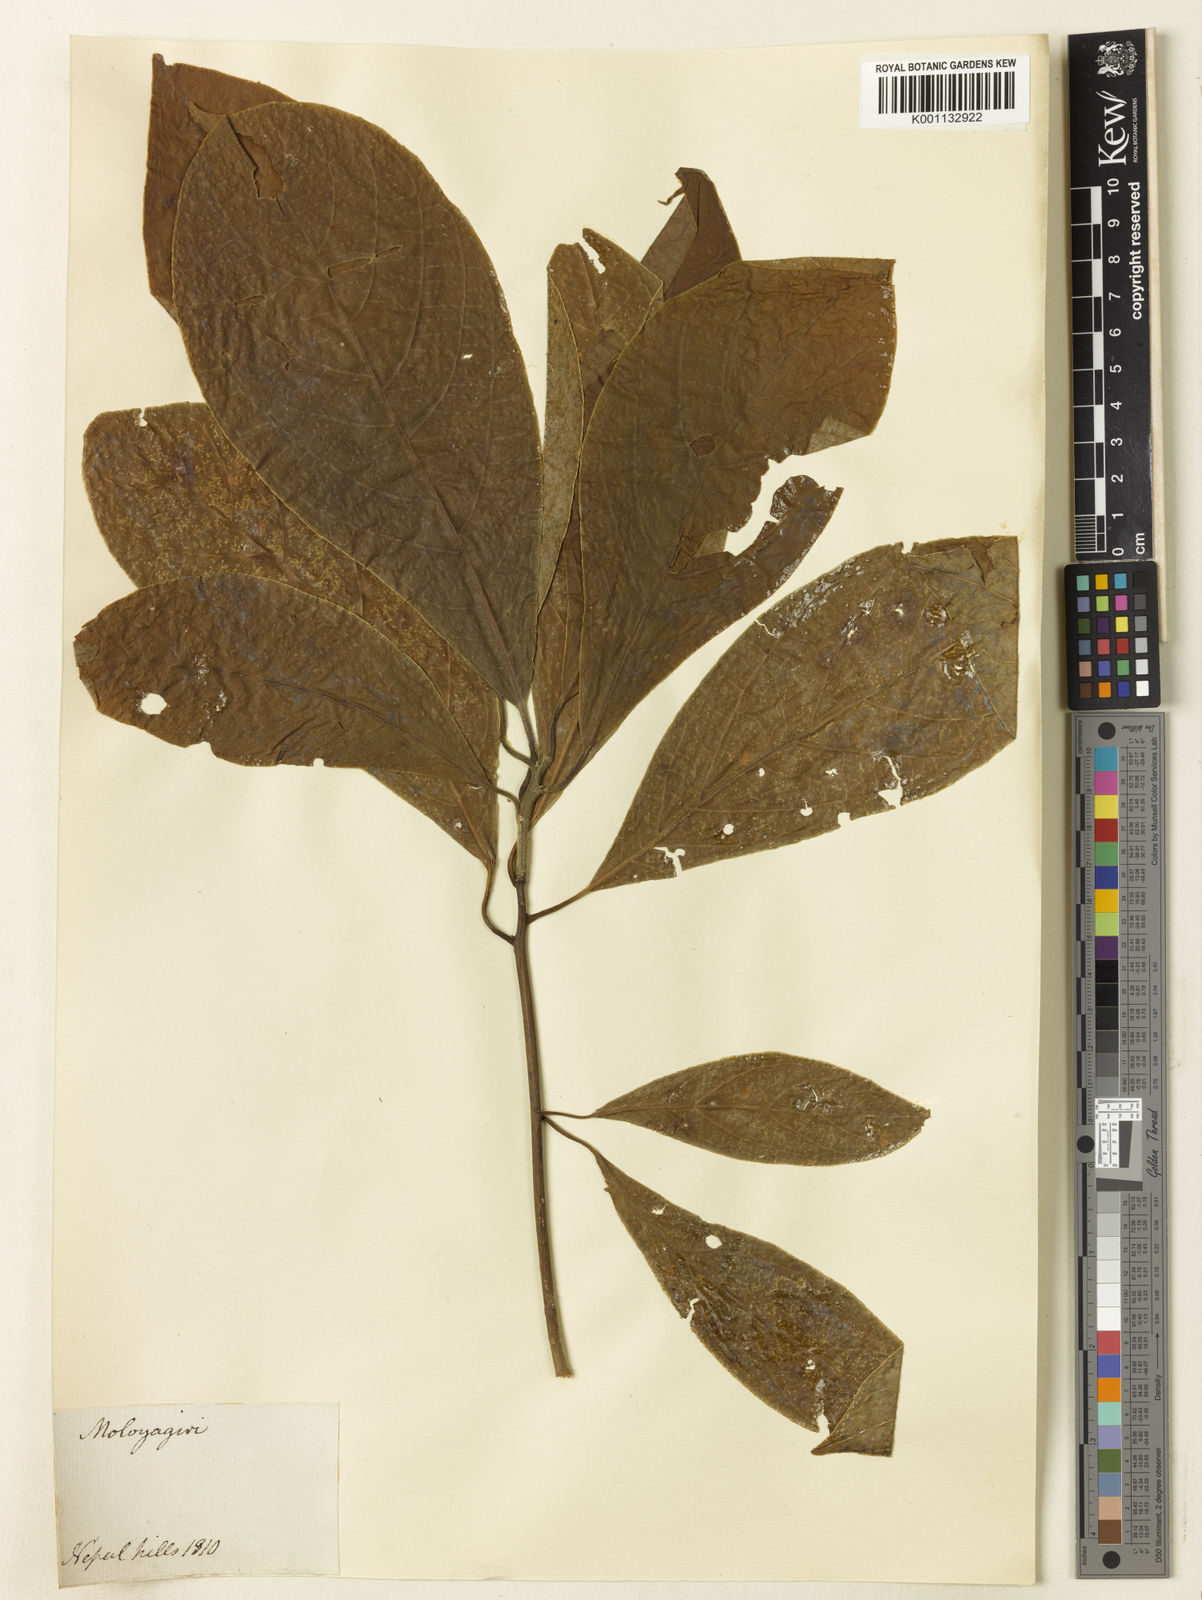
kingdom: Plantae
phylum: Tracheophyta
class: Magnoliopsida
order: Laurales
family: Lauraceae
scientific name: Lauraceae
